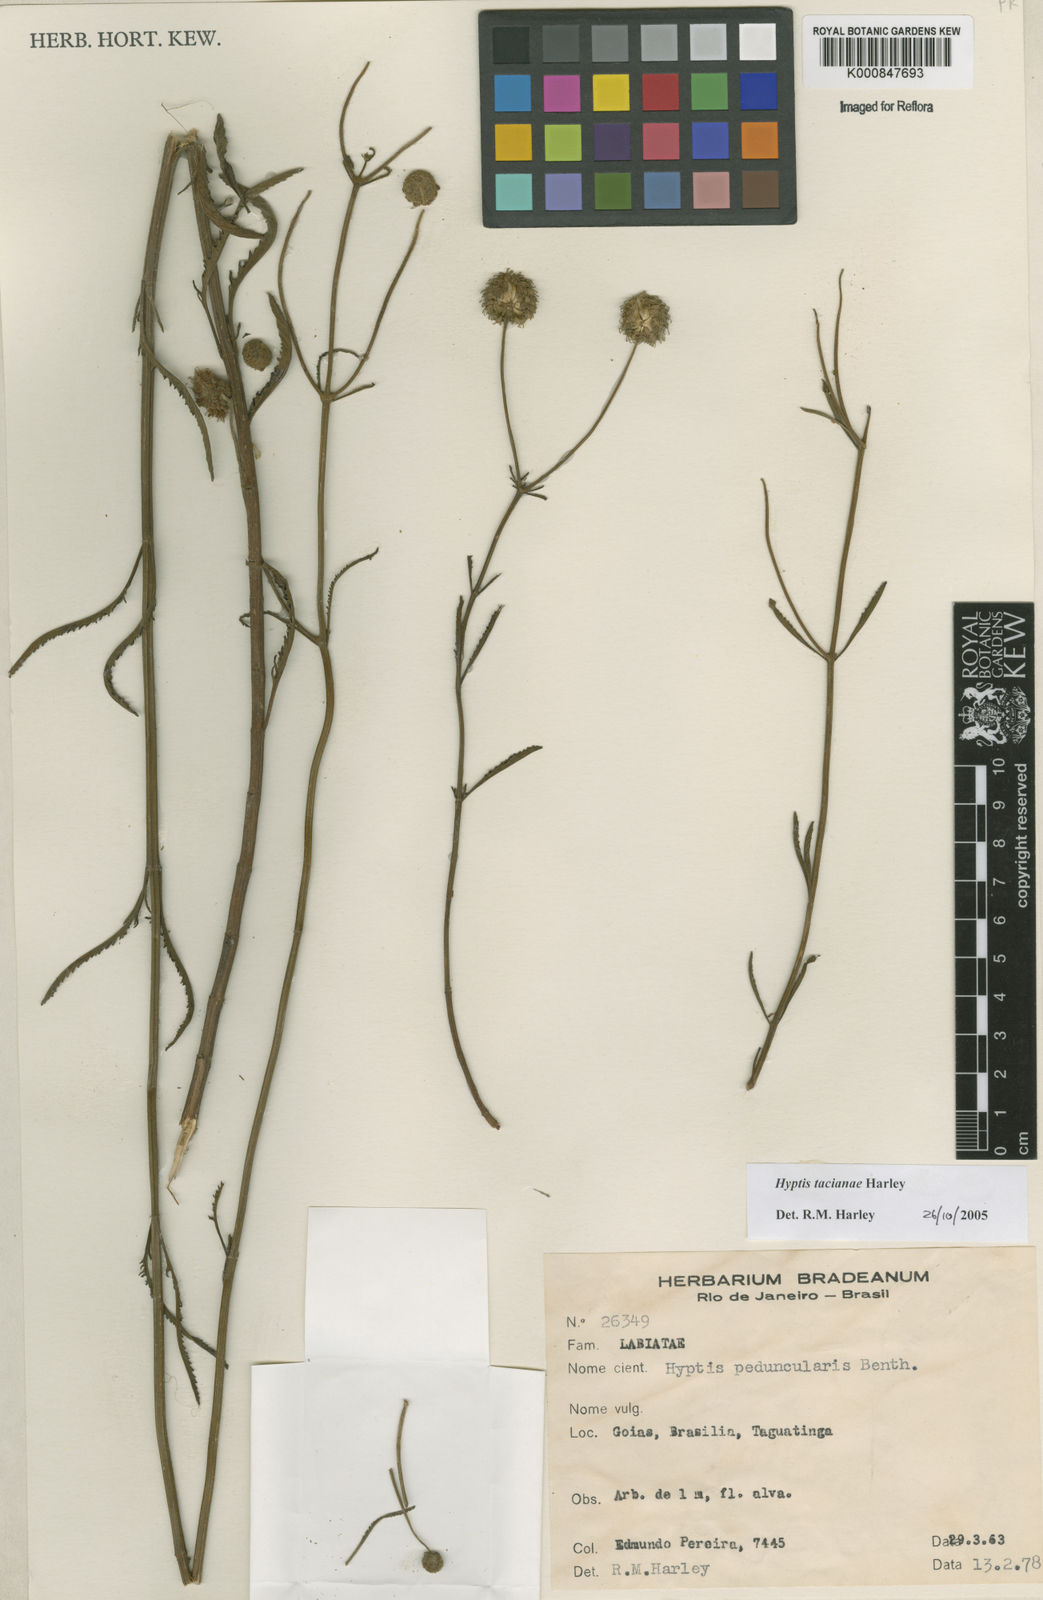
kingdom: Plantae
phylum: Tracheophyta
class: Magnoliopsida
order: Lamiales
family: Lamiaceae
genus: Cyanocephalus
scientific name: Cyanocephalus tacianae
